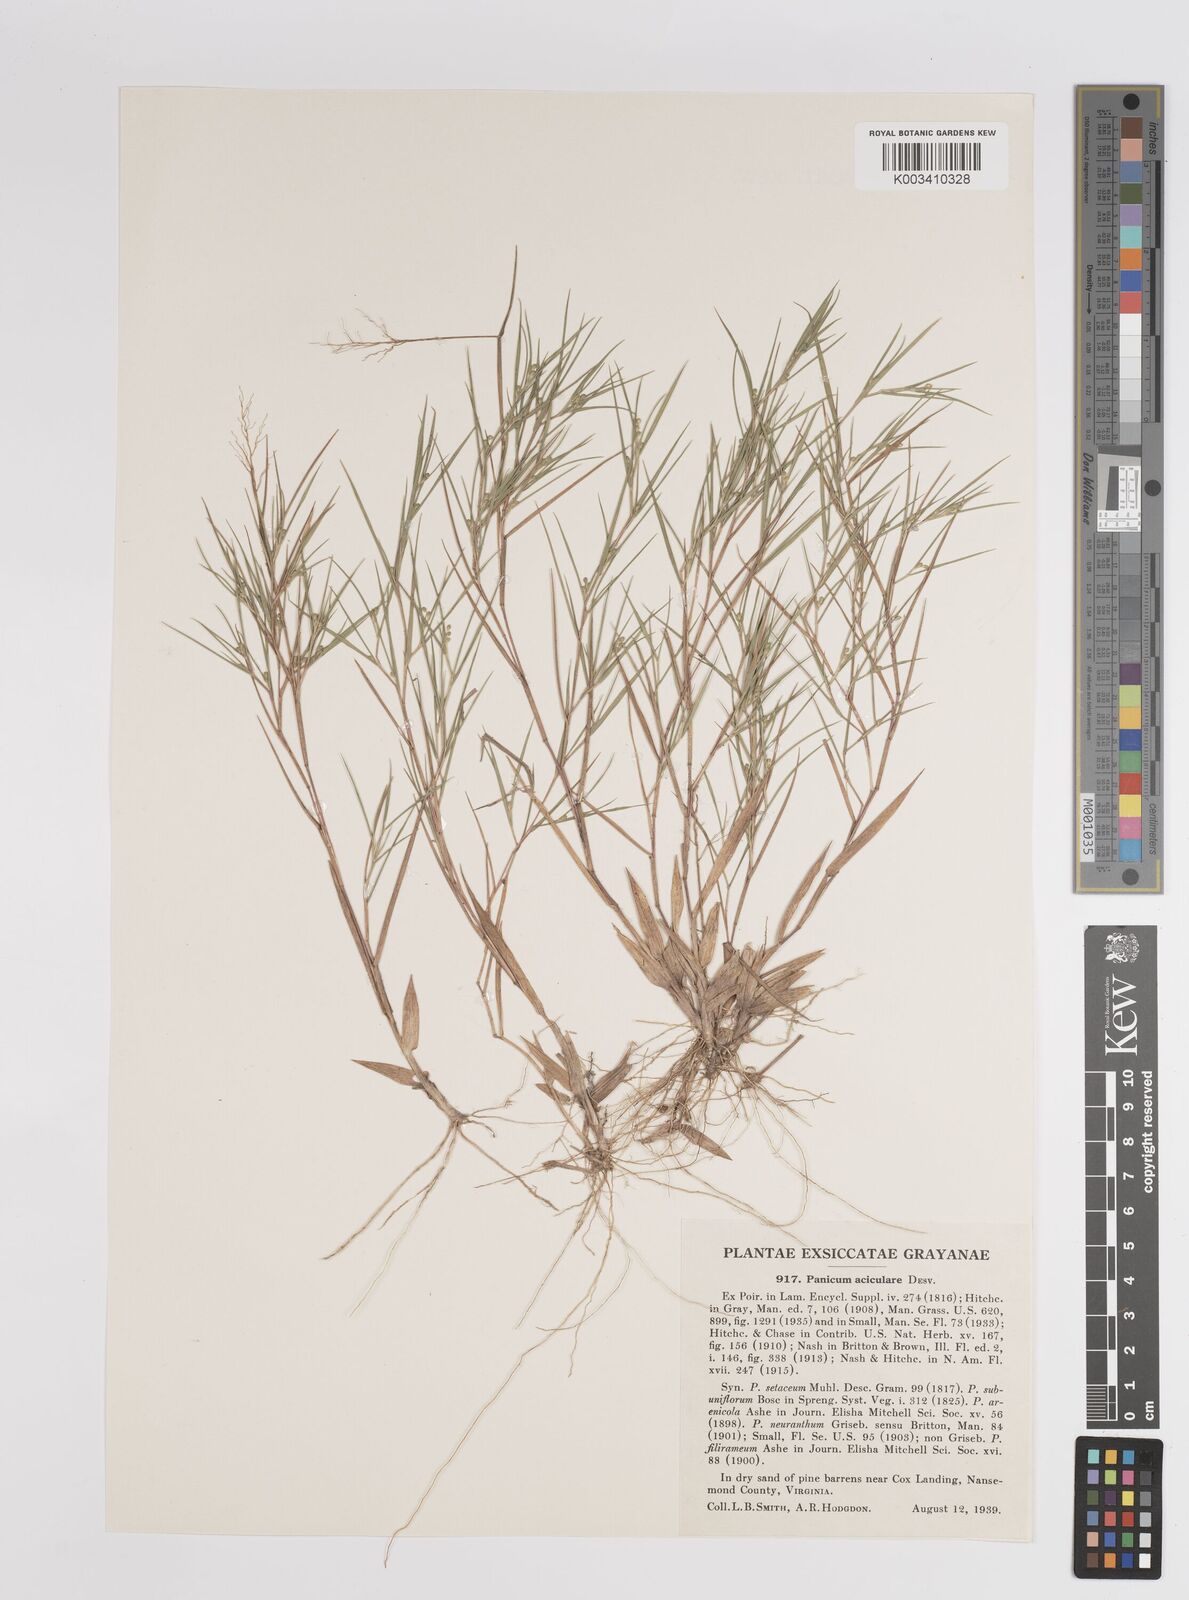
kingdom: Plantae
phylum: Tracheophyta
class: Liliopsida
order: Poales
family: Poaceae
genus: Dichanthelium
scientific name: Dichanthelium aciculare
